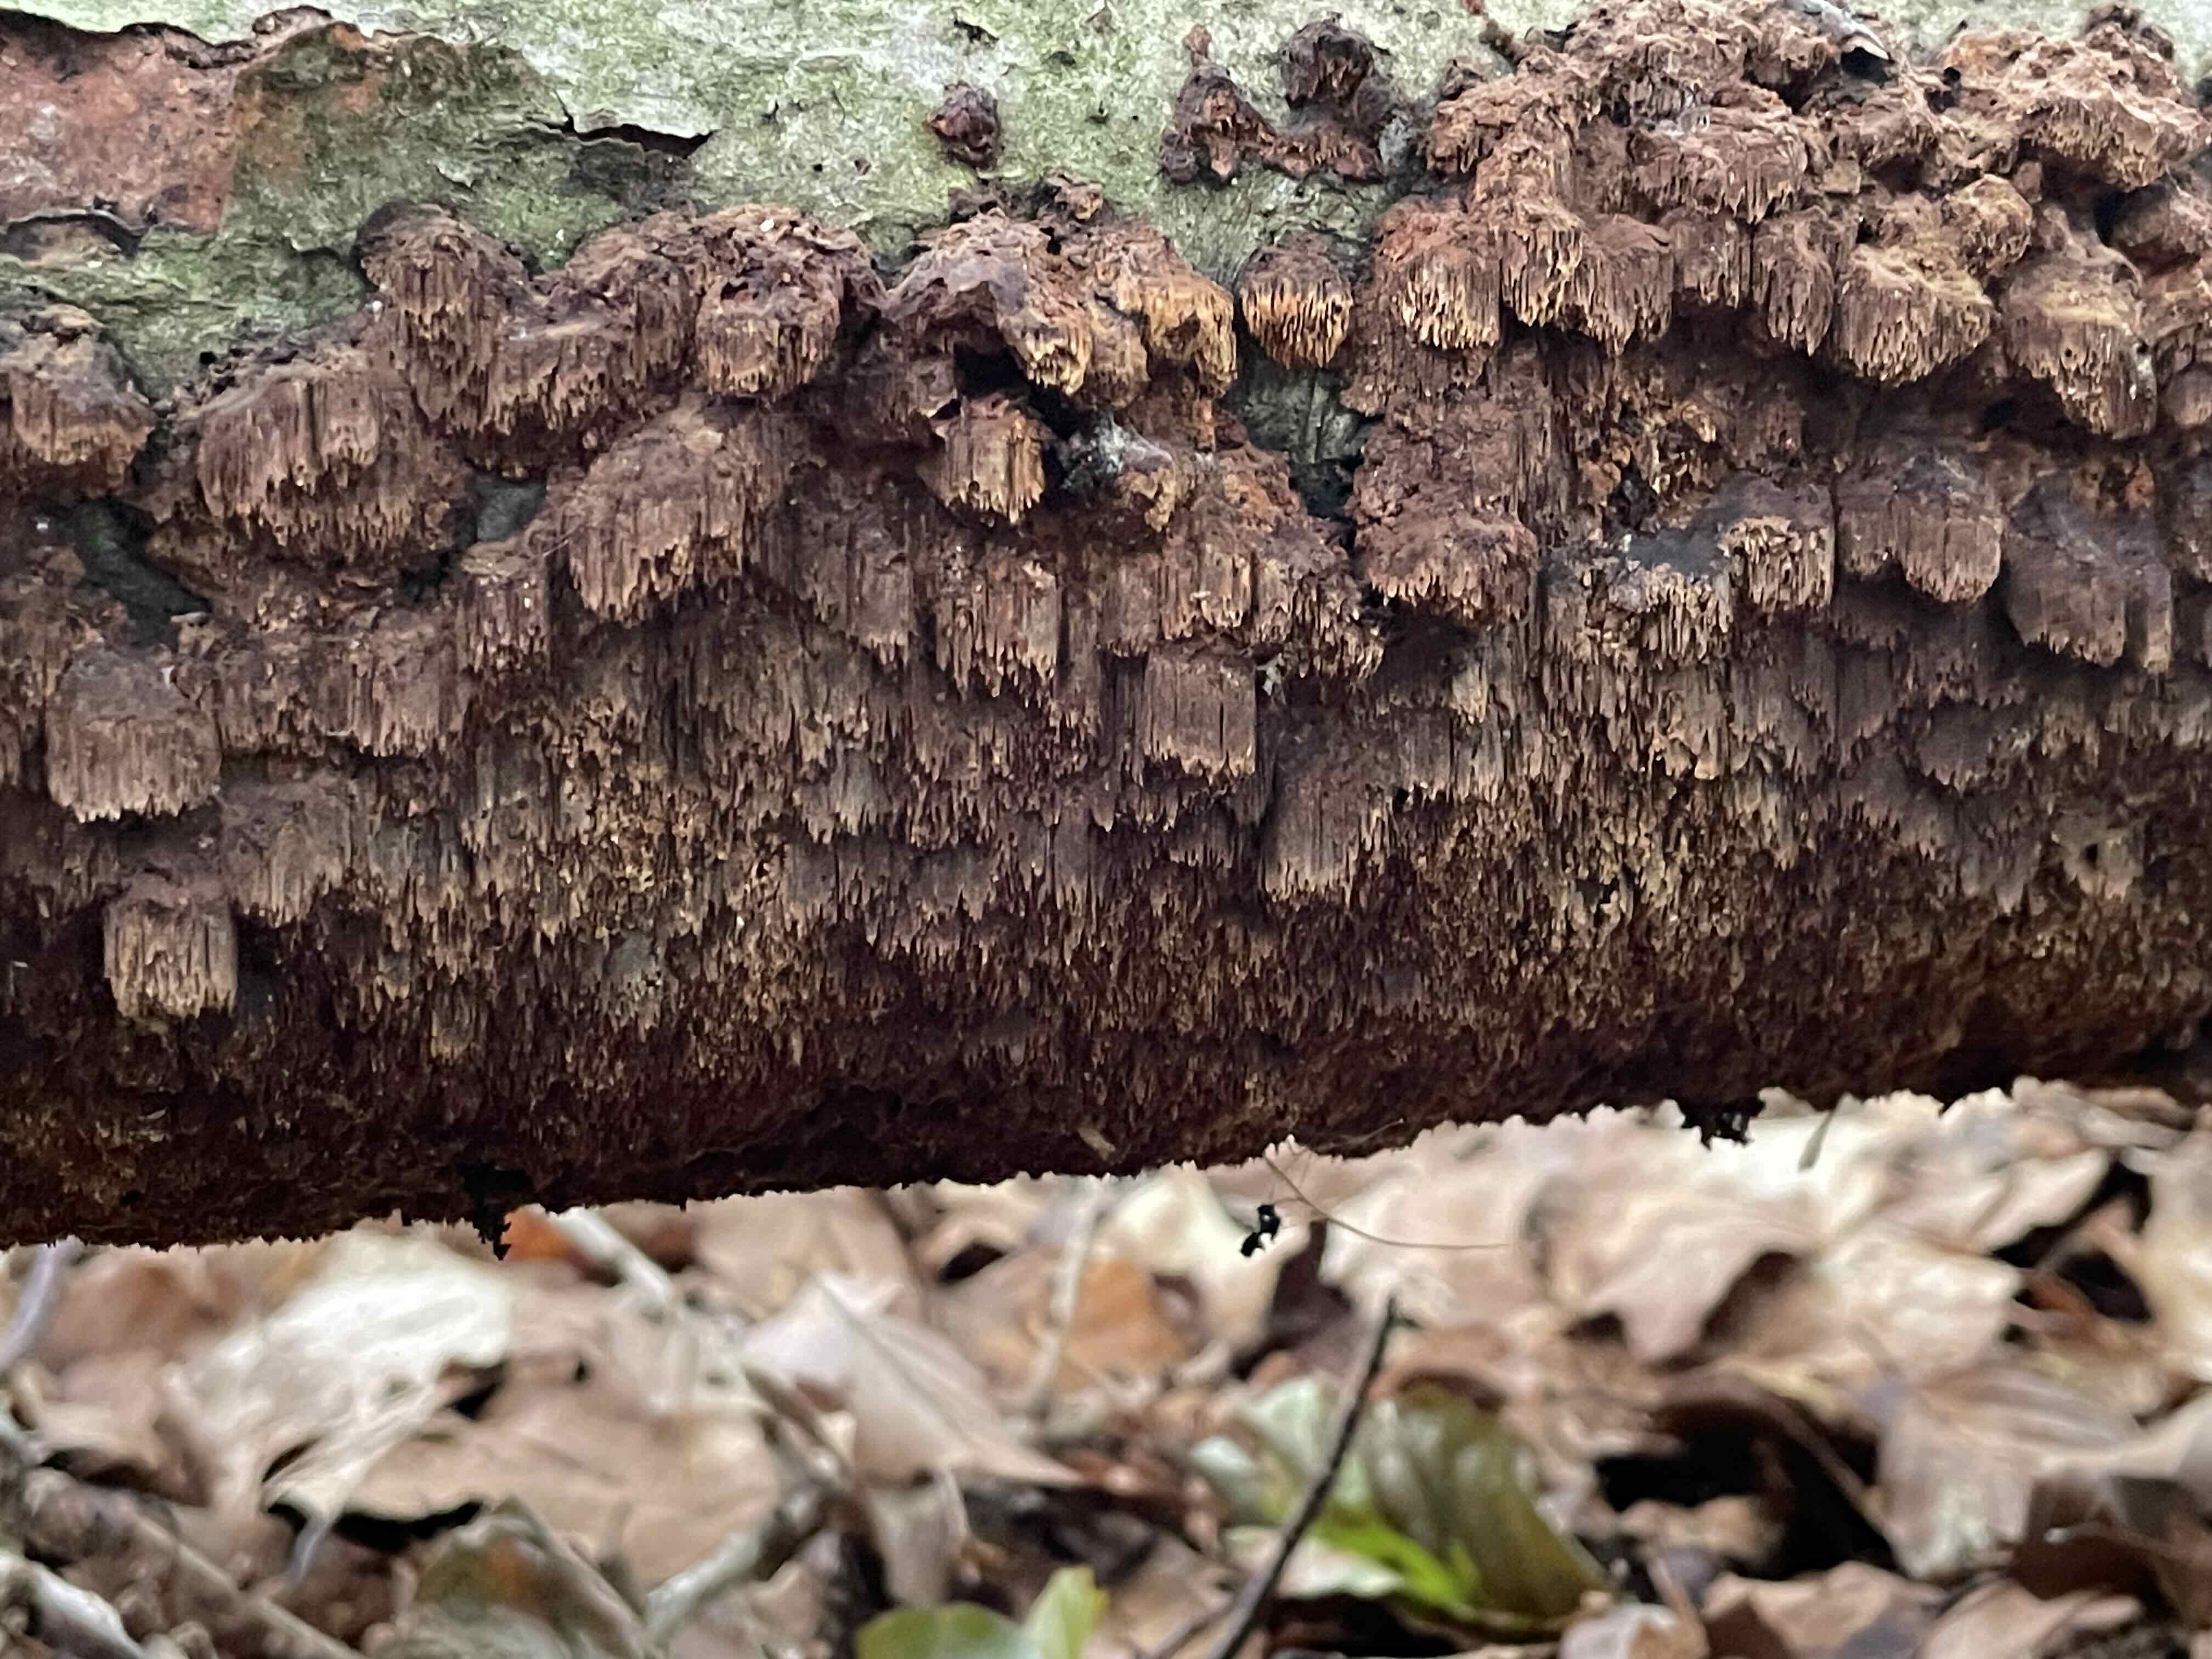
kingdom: Fungi
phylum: Basidiomycota
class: Agaricomycetes
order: Hymenochaetales
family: Hymenochaetaceae
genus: Mensularia
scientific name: Mensularia nodulosa
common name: bøge-spejlporesvamp
